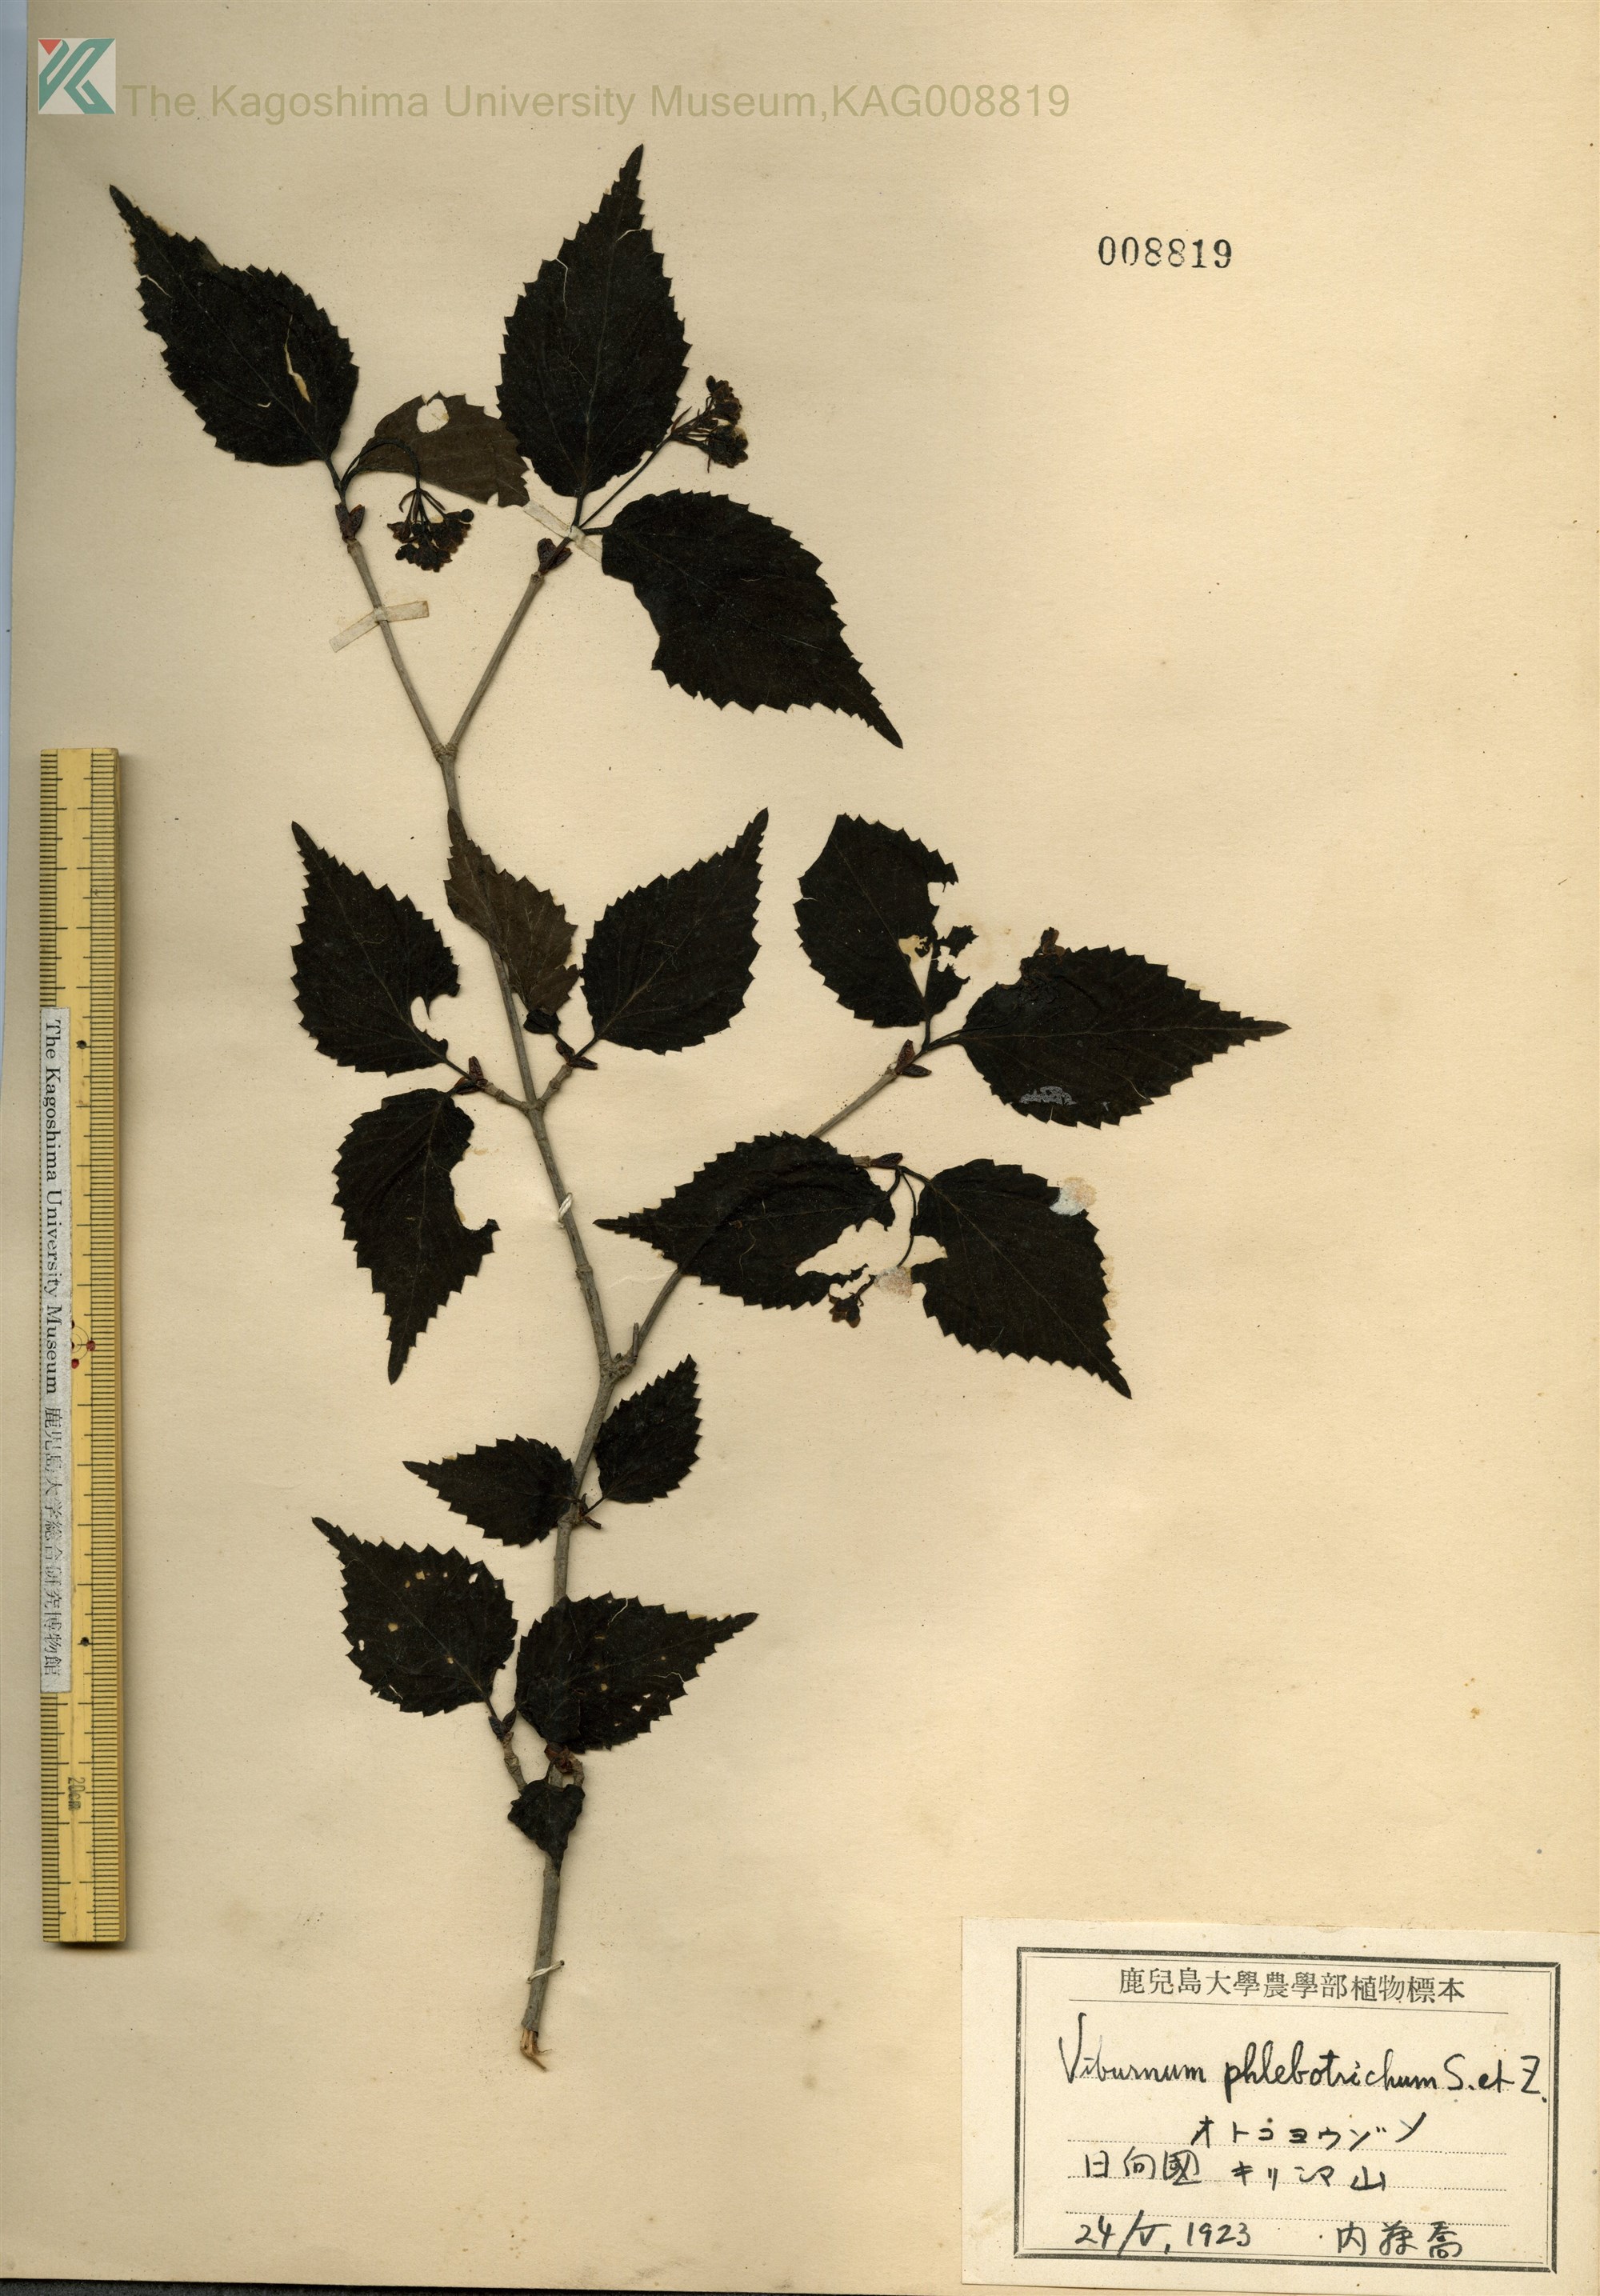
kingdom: Plantae
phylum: Tracheophyta
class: Magnoliopsida
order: Dipsacales
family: Viburnaceae
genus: Viburnum
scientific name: Viburnum phlebotrichum
